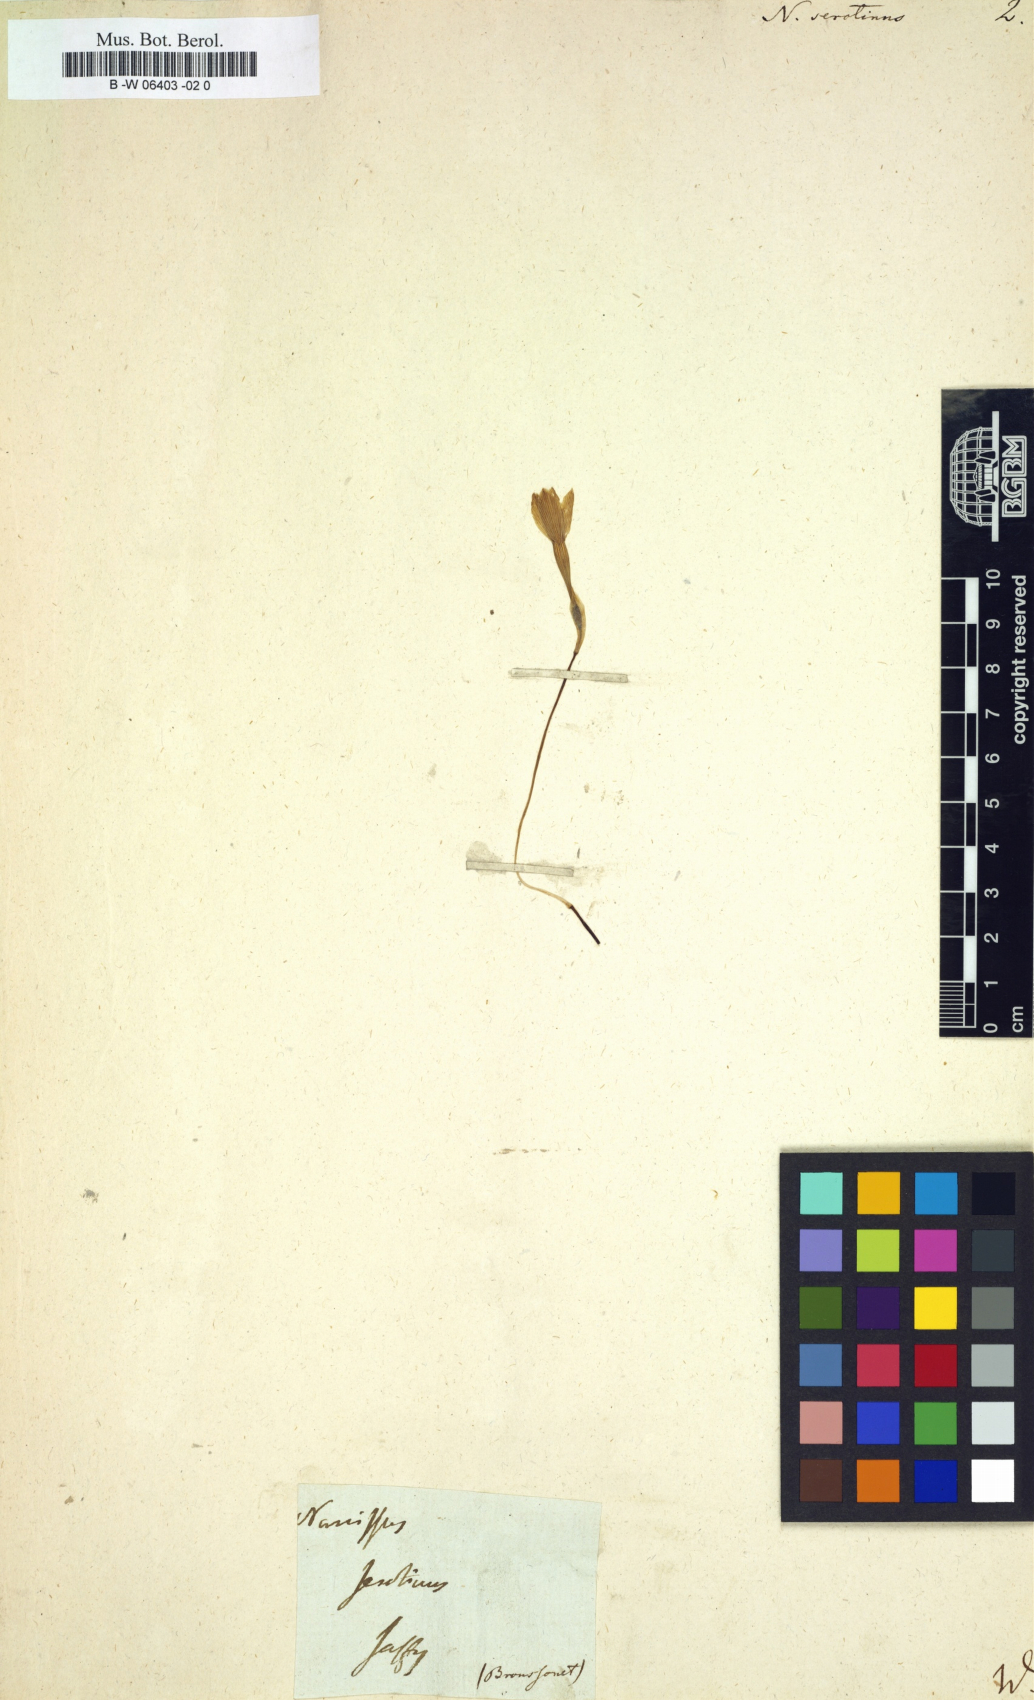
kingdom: Plantae
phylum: Tracheophyta
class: Liliopsida
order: Asparagales
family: Amaryllidaceae
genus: Narcissus
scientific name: Narcissus serotinus
